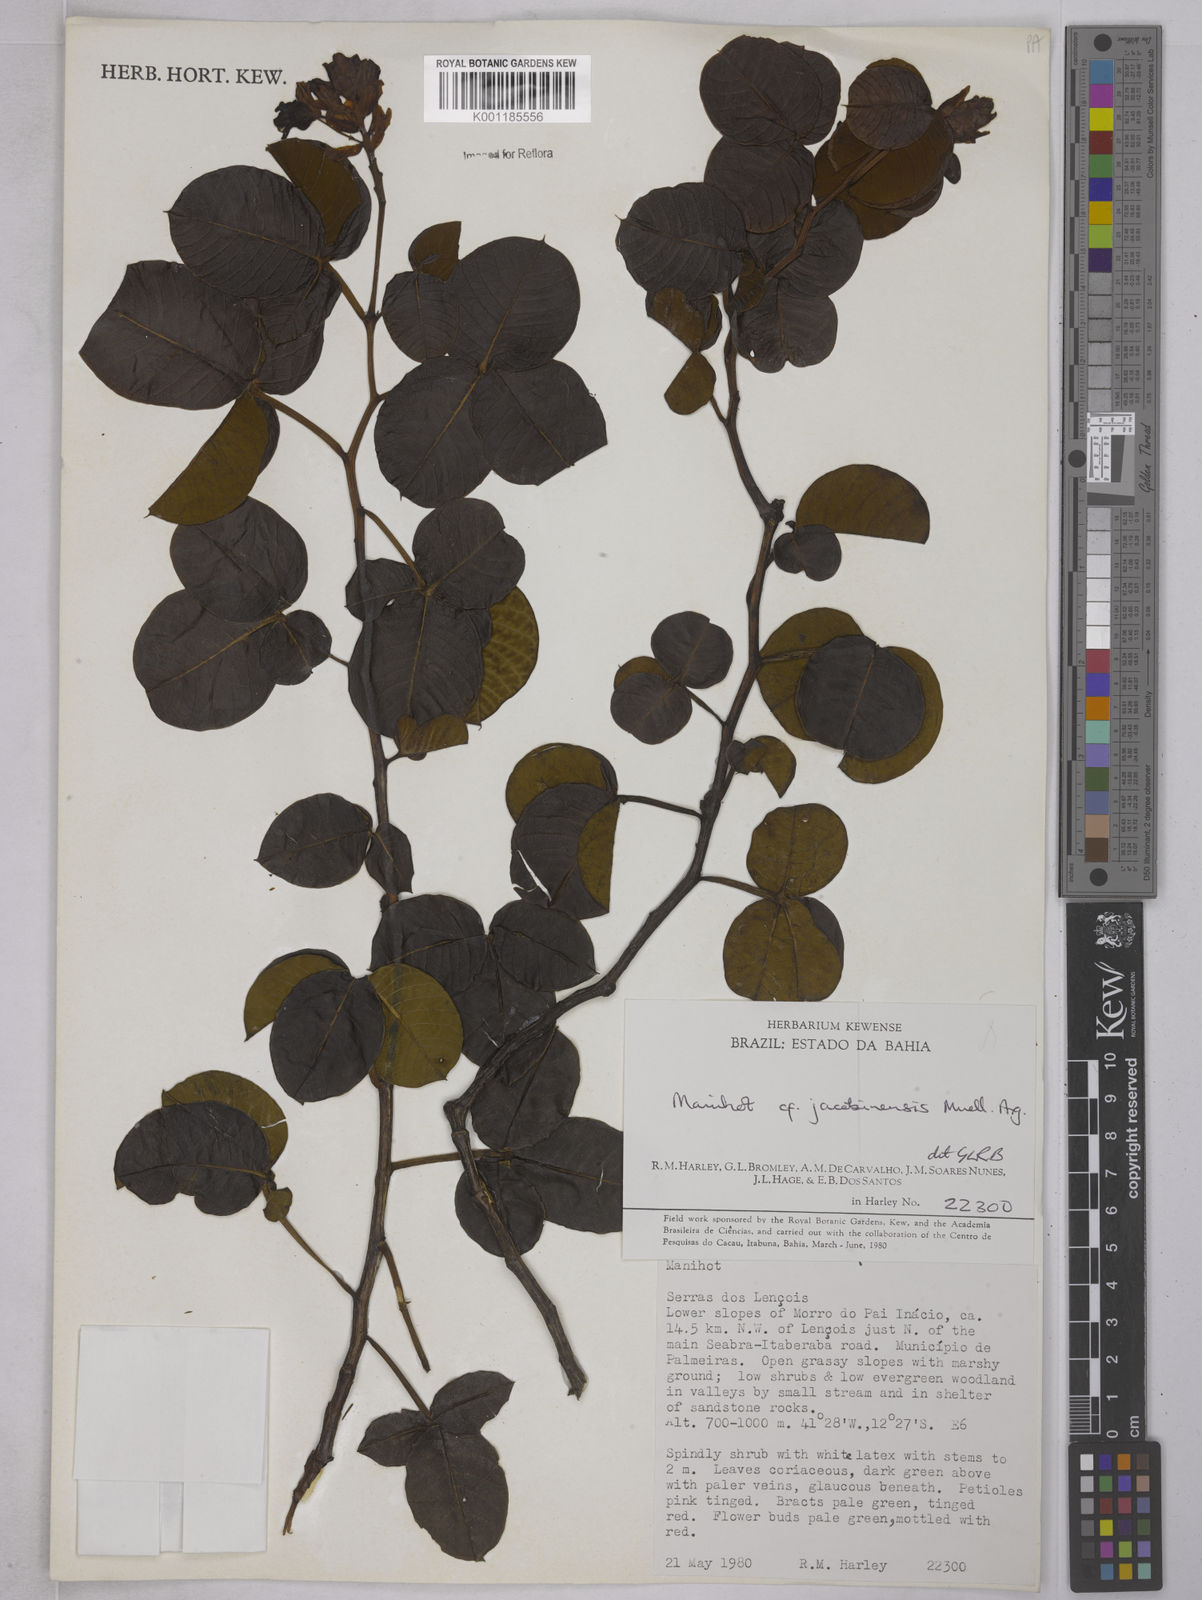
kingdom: Plantae
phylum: Tracheophyta
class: Magnoliopsida
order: Malpighiales
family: Euphorbiaceae
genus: Manihot
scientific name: Manihot
